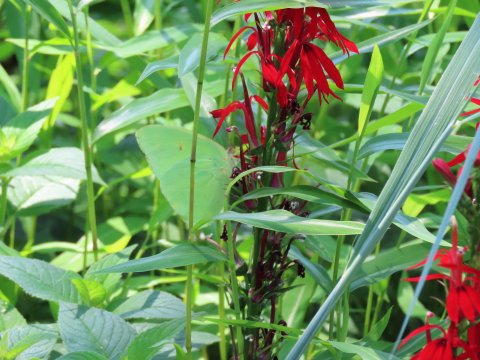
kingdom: Animalia
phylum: Arthropoda
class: Insecta
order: Lepidoptera
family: Pieridae
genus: Phoebis
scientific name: Phoebis sennae
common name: Cloudless Sulphur
